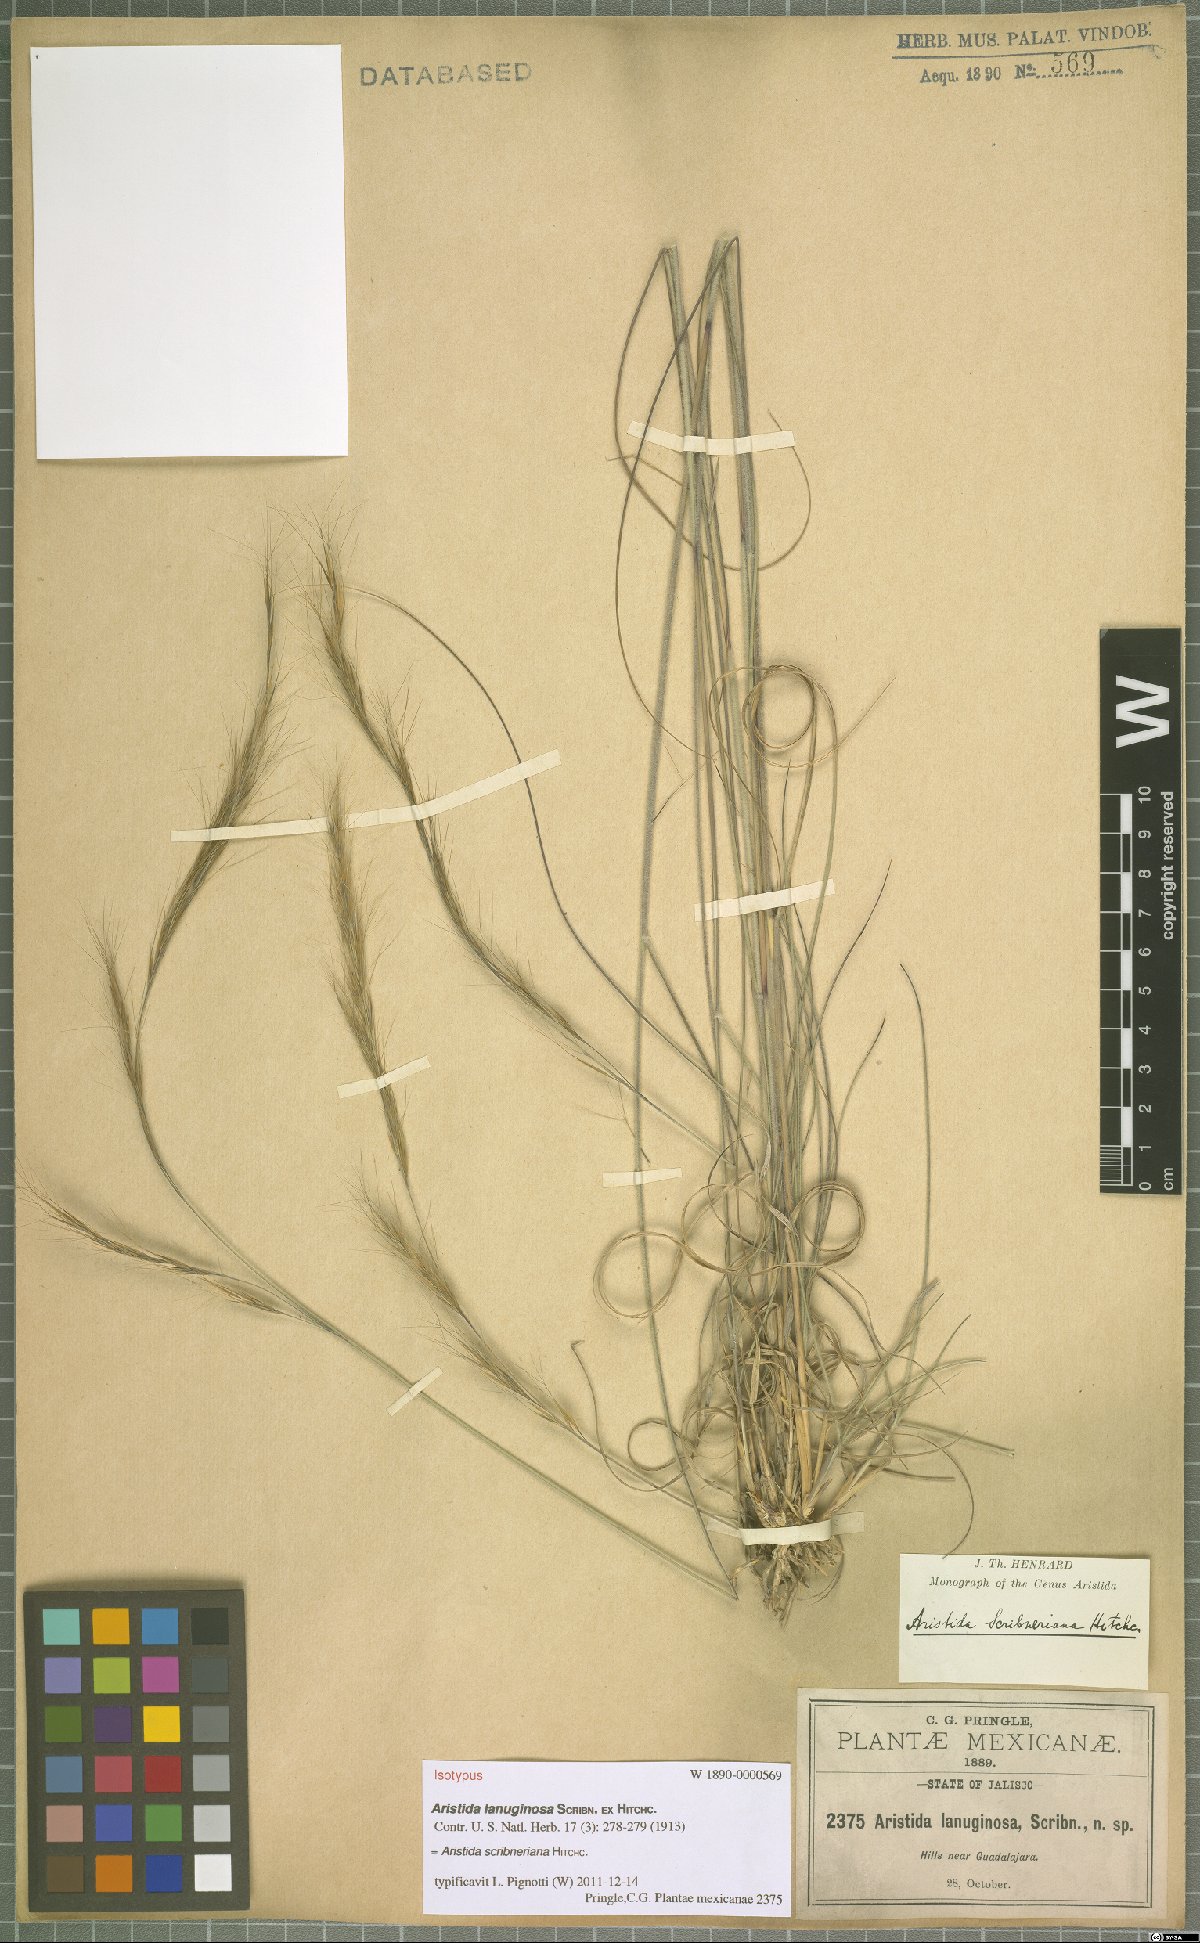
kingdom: Plantae
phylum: Tracheophyta
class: Liliopsida
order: Poales
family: Poaceae
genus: Aristida
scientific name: Aristida scribneriana
